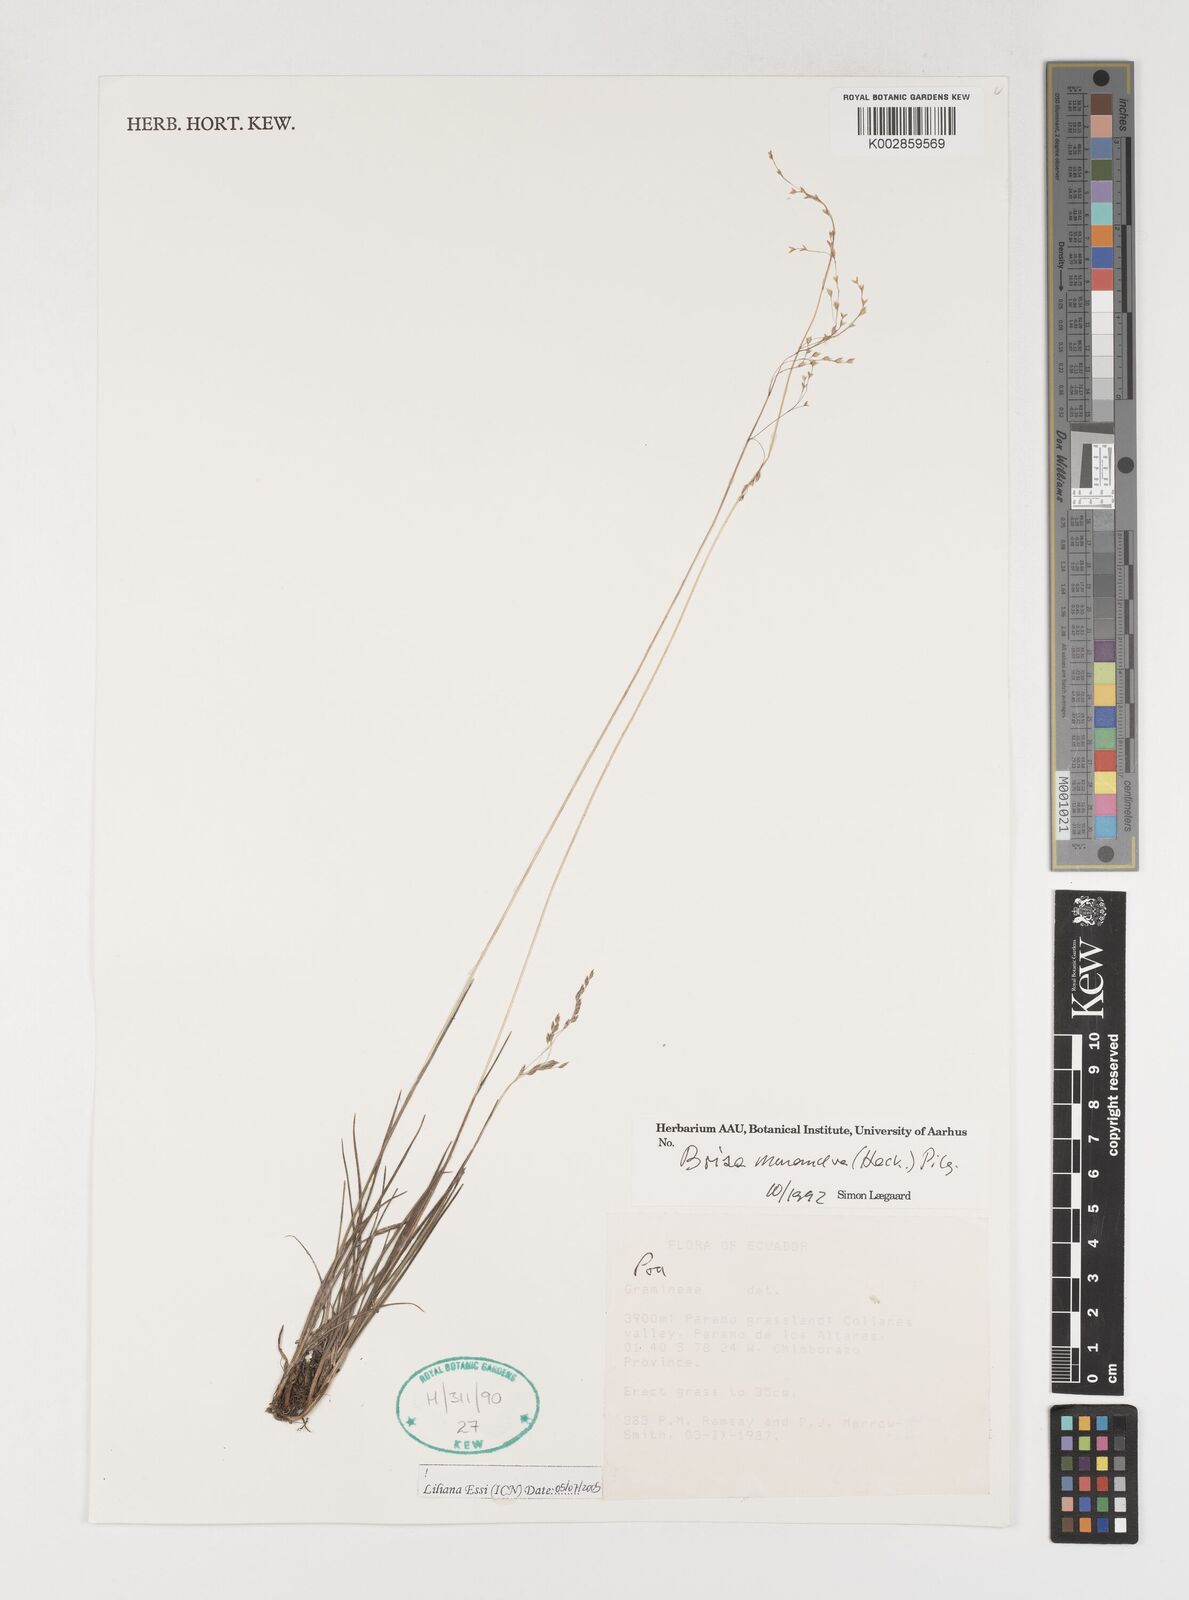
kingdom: Plantae
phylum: Tracheophyta
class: Liliopsida
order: Poales
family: Poaceae
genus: Poidium
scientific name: Poidium monandrum
